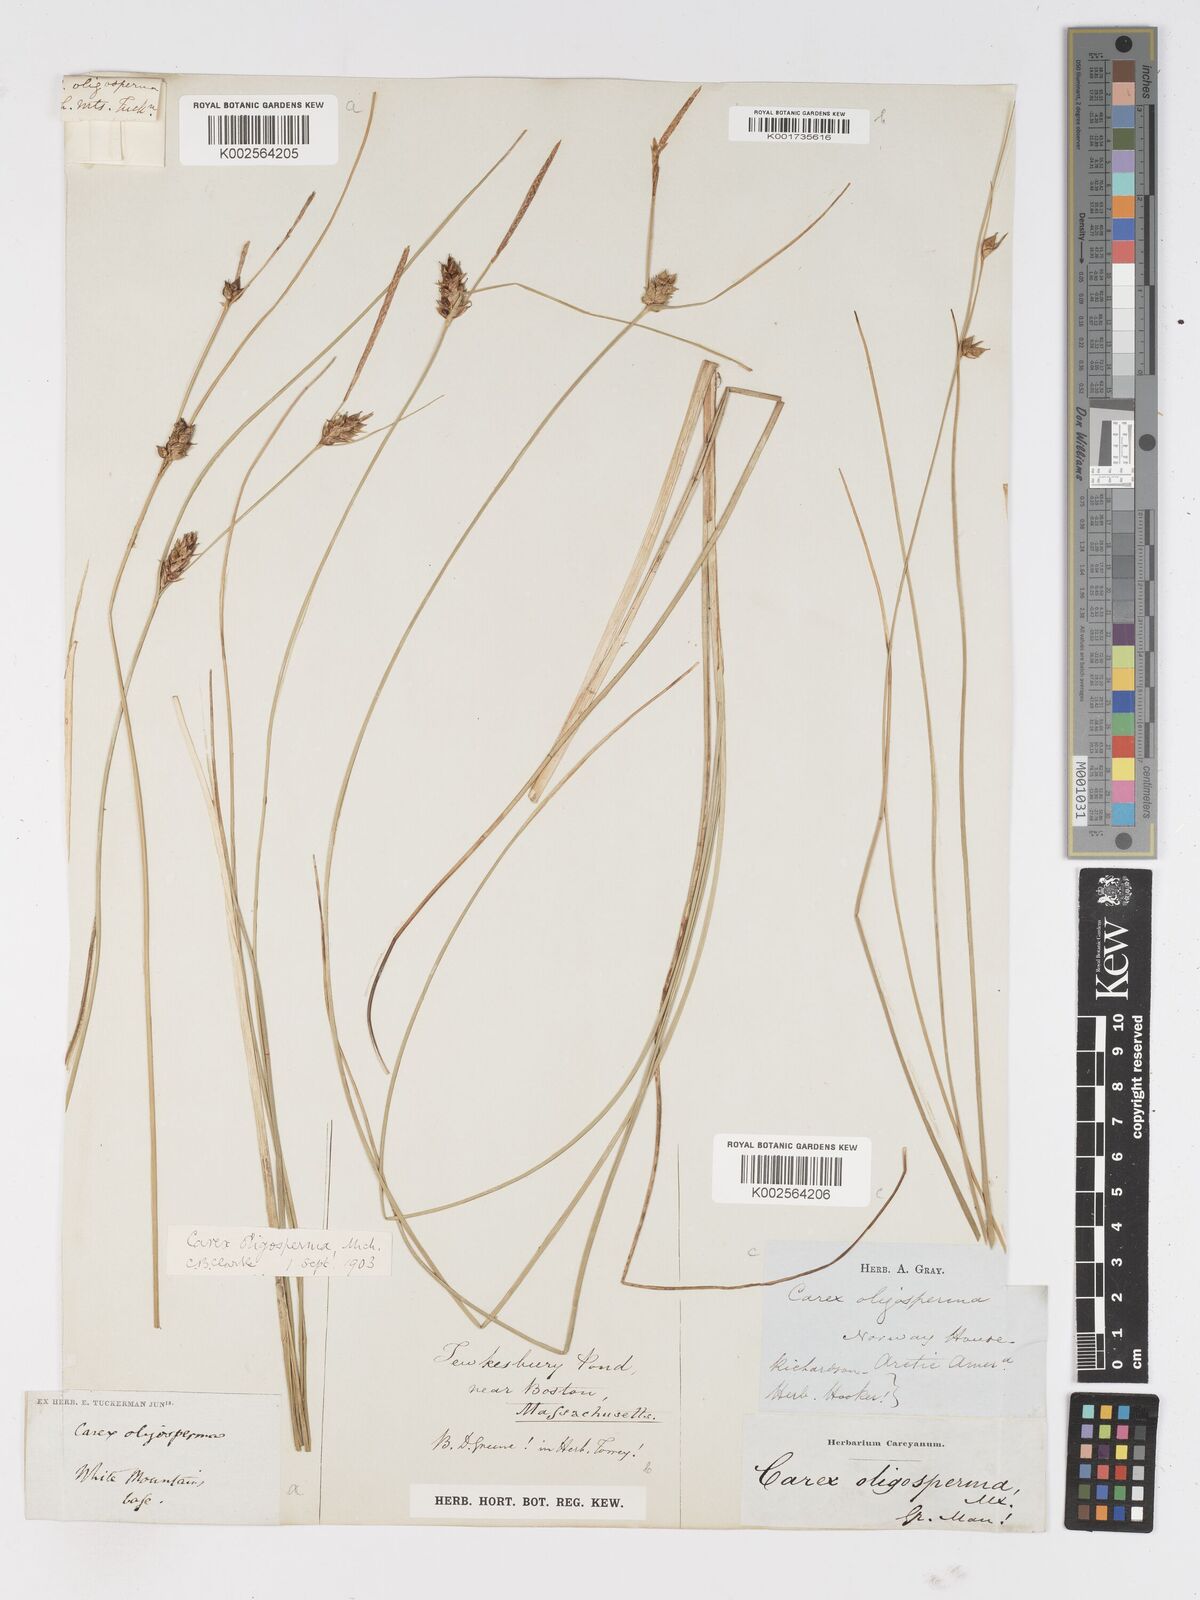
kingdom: Plantae
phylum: Tracheophyta
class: Liliopsida
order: Poales
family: Cyperaceae
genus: Carex
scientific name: Carex oligosperma
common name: Few-seed sedge
